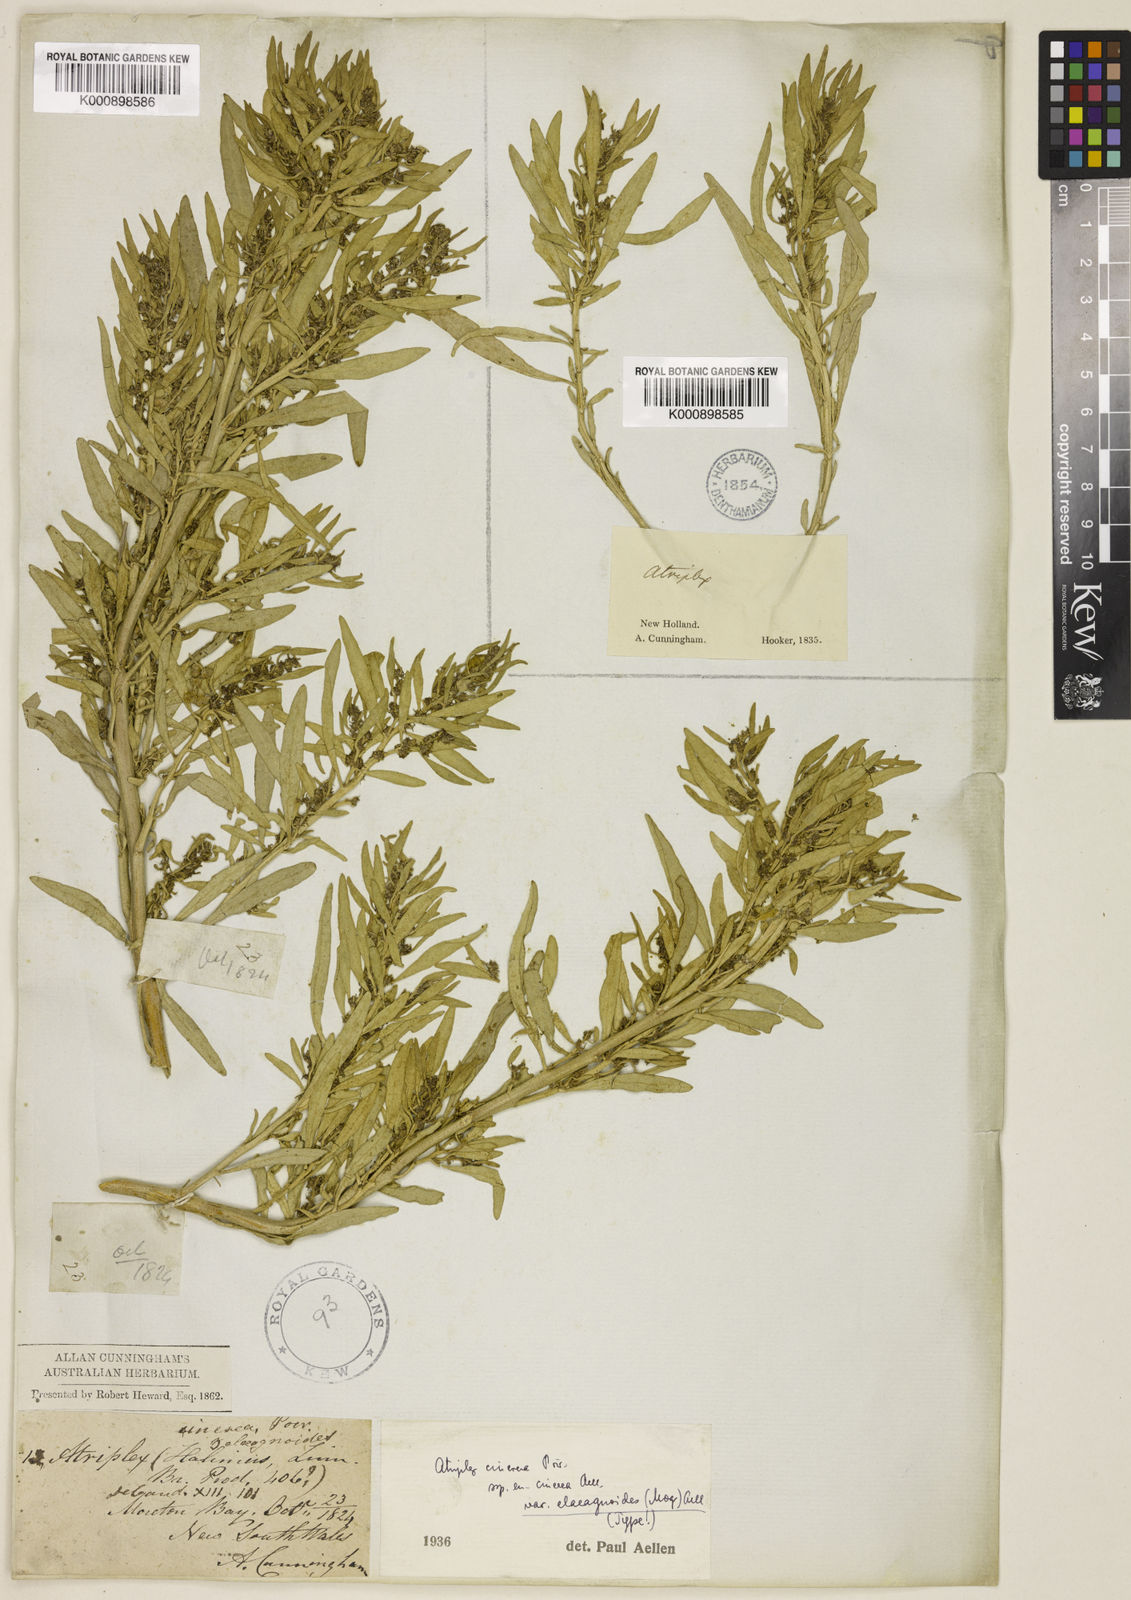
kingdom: Plantae
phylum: Tracheophyta
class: Magnoliopsida
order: Caryophyllales
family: Amaranthaceae
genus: Atriplex
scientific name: Atriplex cinerea
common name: Grey saltbush
